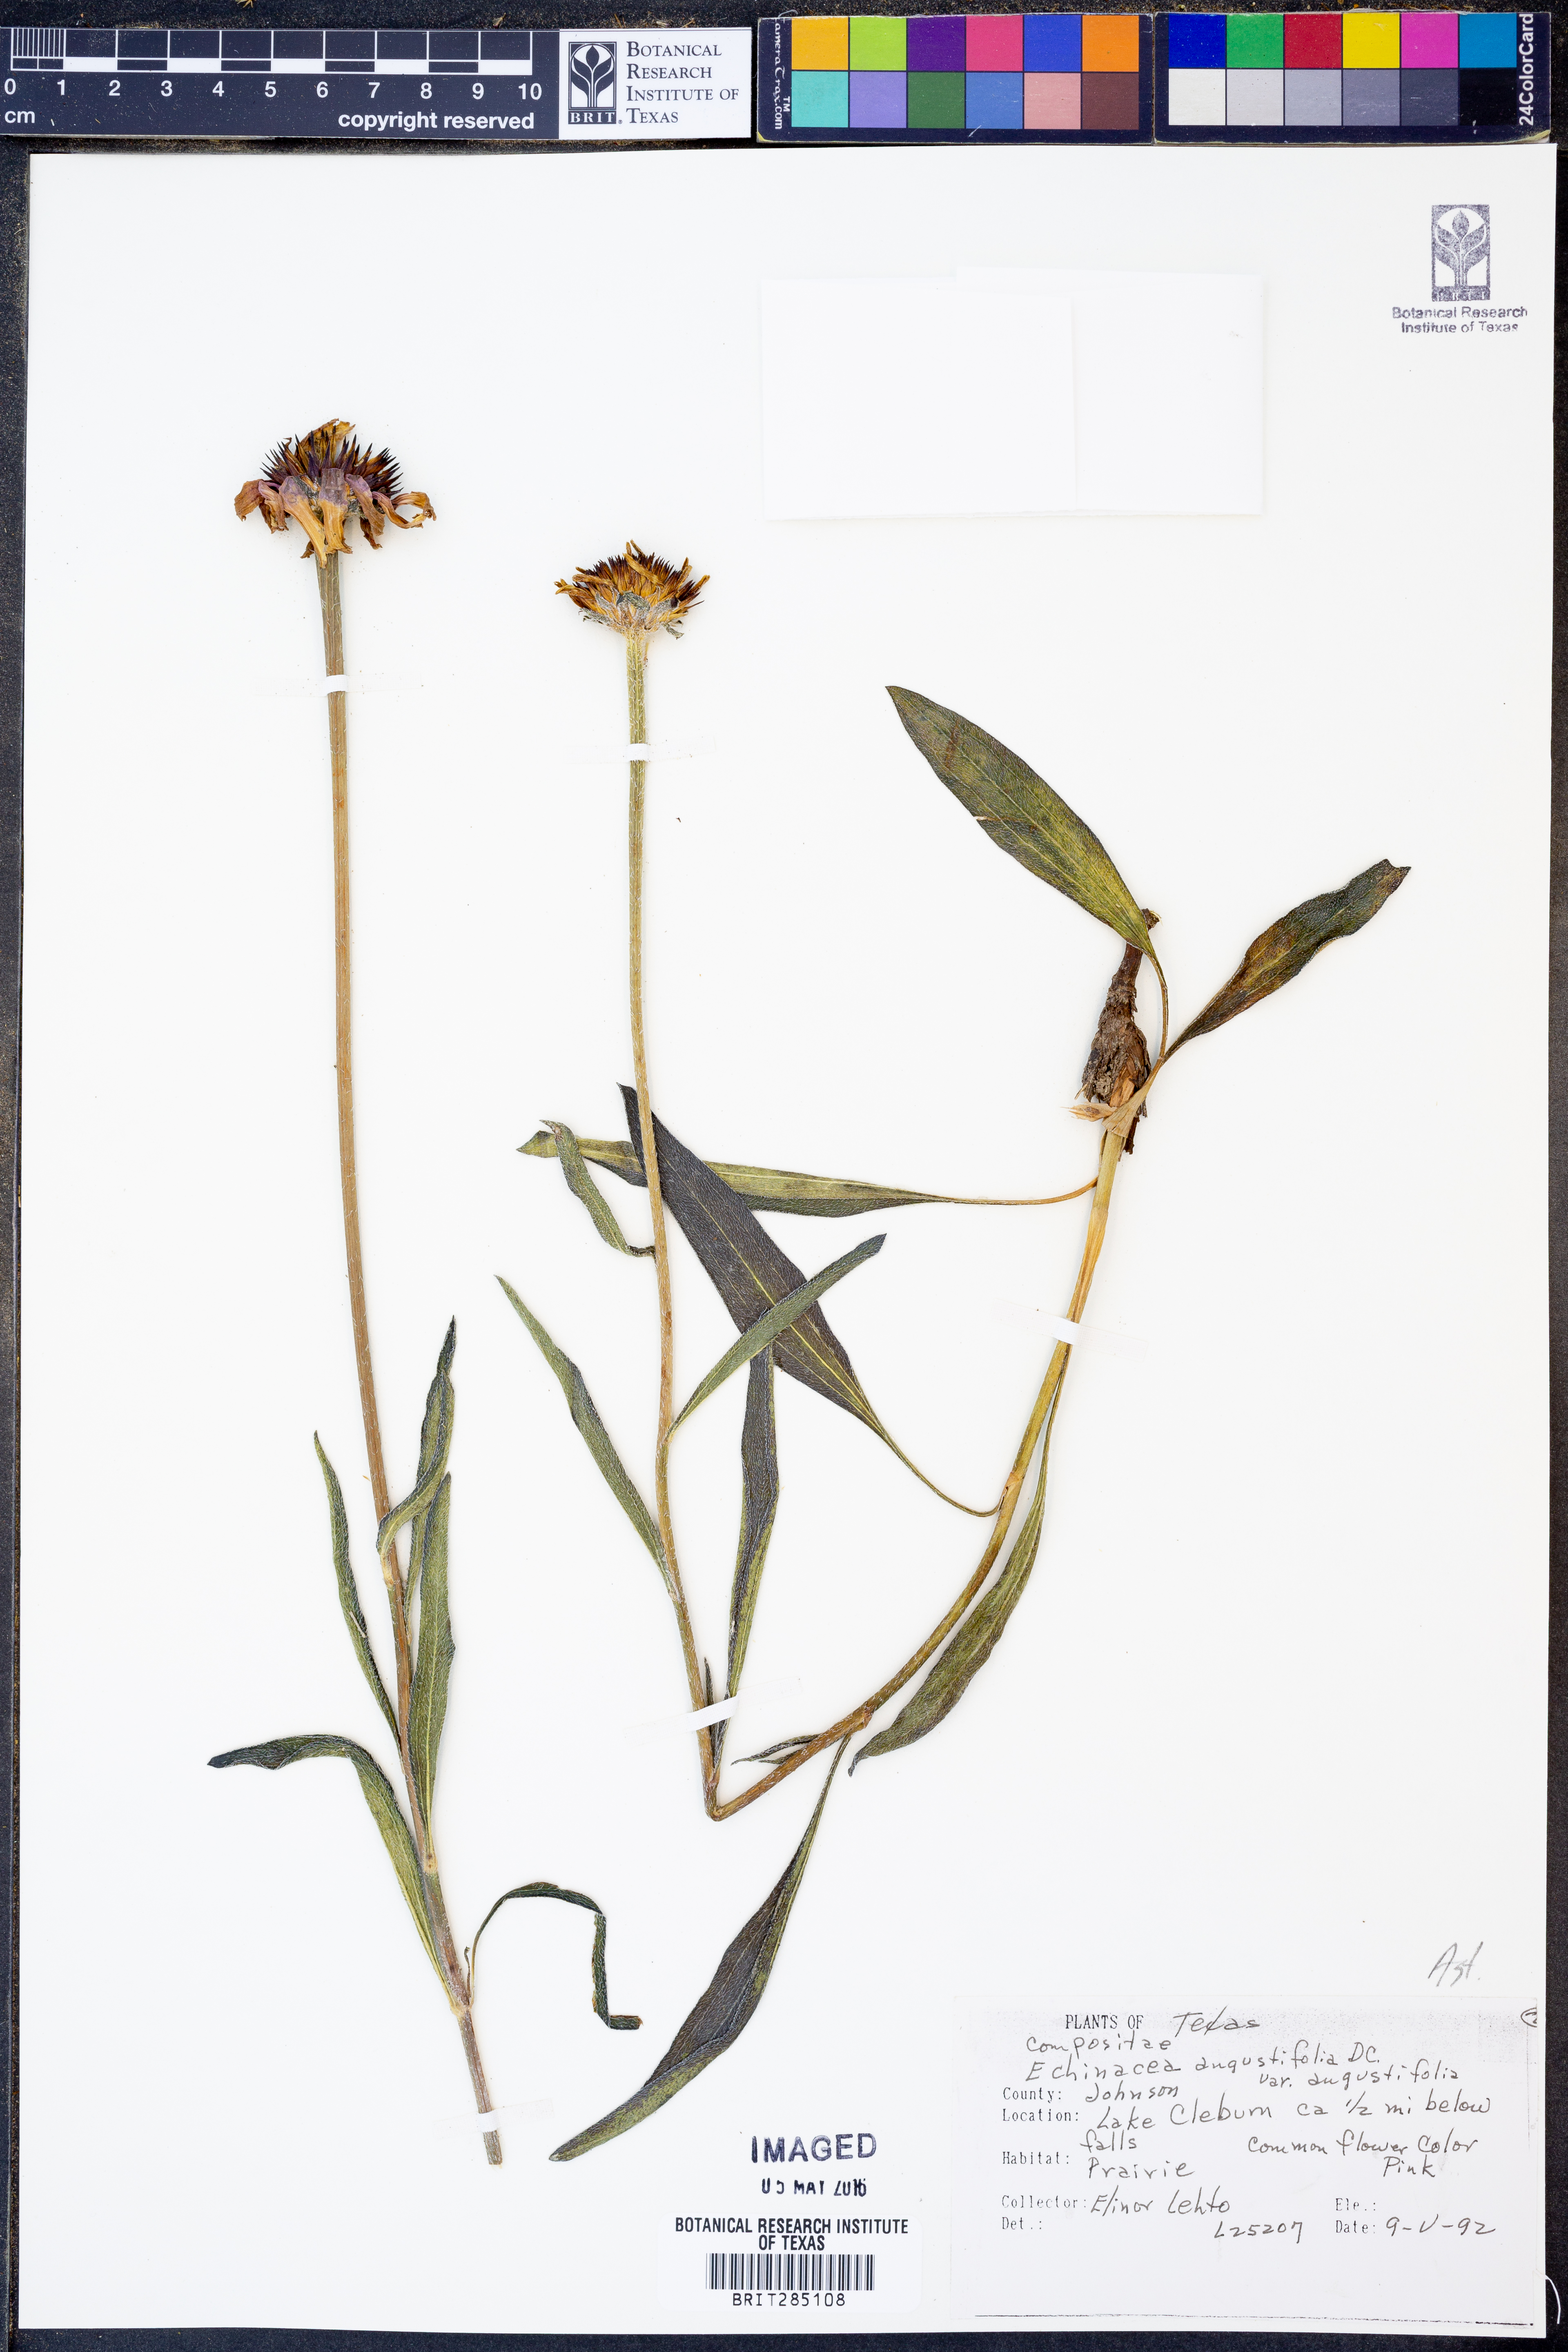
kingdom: Plantae
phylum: Tracheophyta
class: Magnoliopsida
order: Asterales
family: Asteraceae
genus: Echinacea
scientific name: Echinacea angustifolia
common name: Black-sampson echinacea
